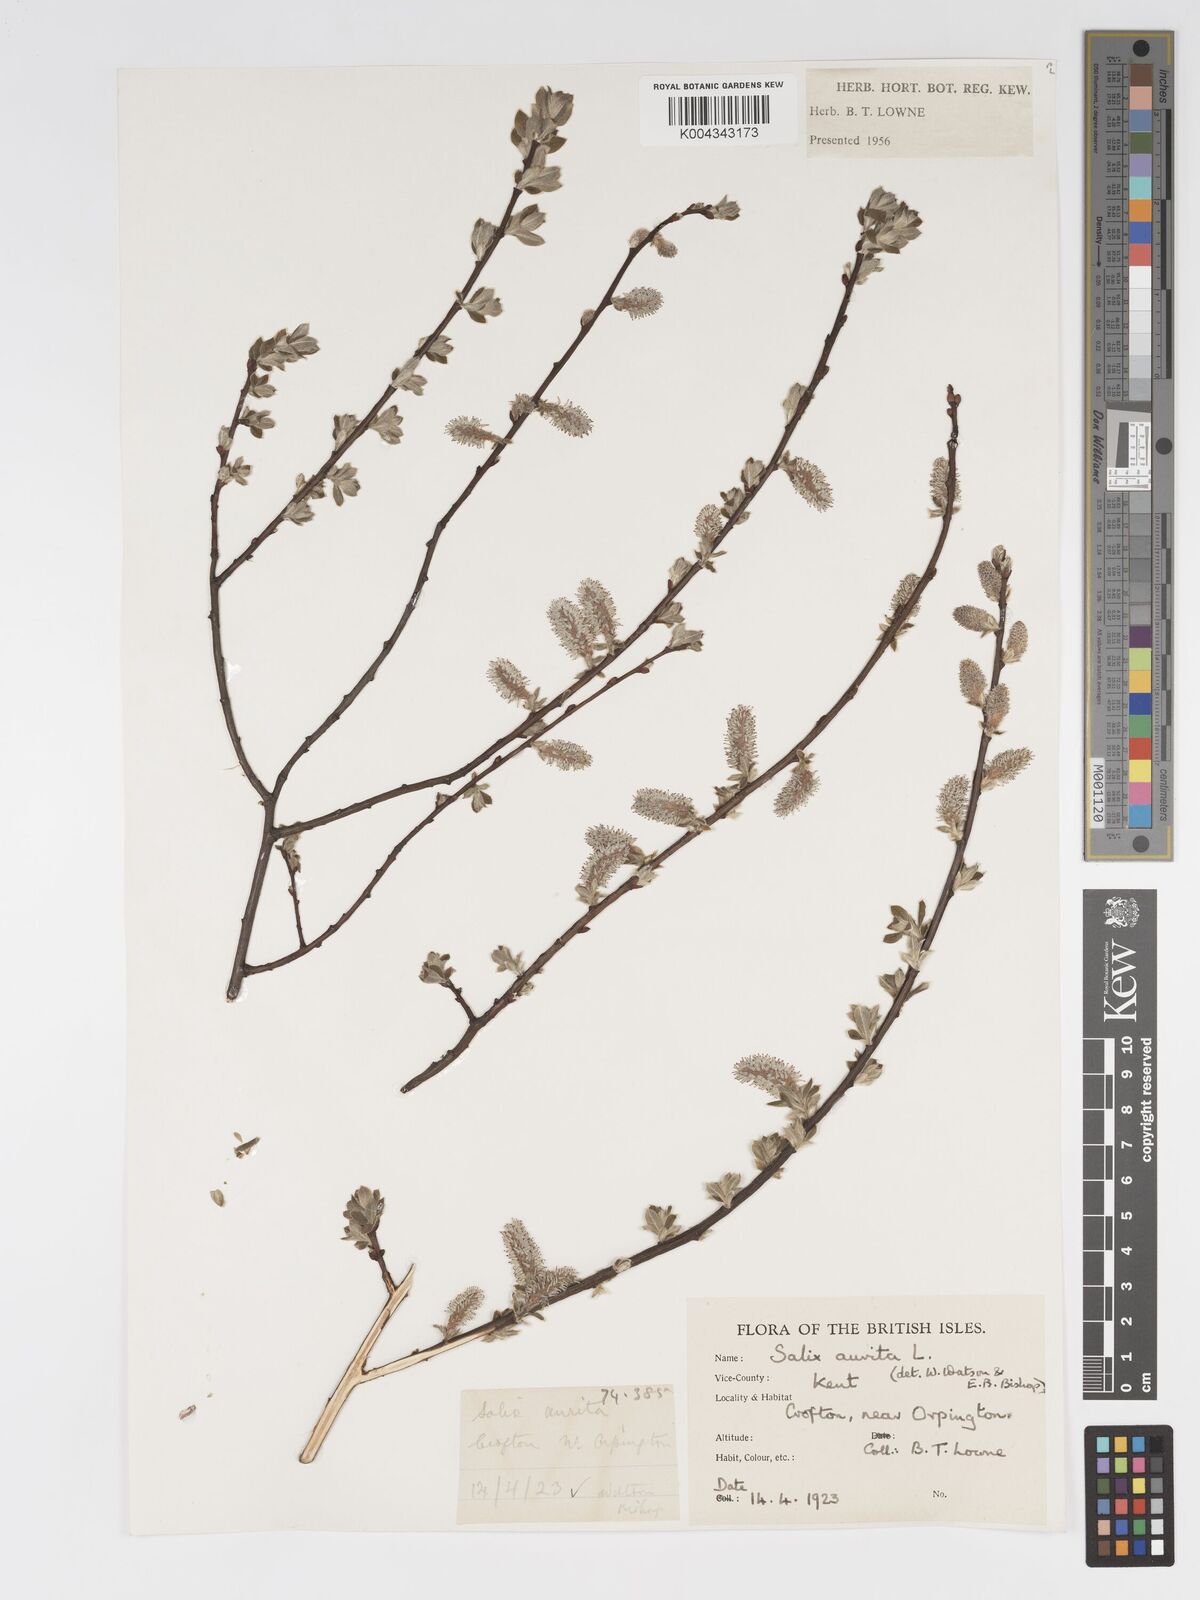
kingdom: Plantae
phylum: Tracheophyta
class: Magnoliopsida
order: Malpighiales
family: Salicaceae
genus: Salix
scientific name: Salix aurita
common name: Eared willow
